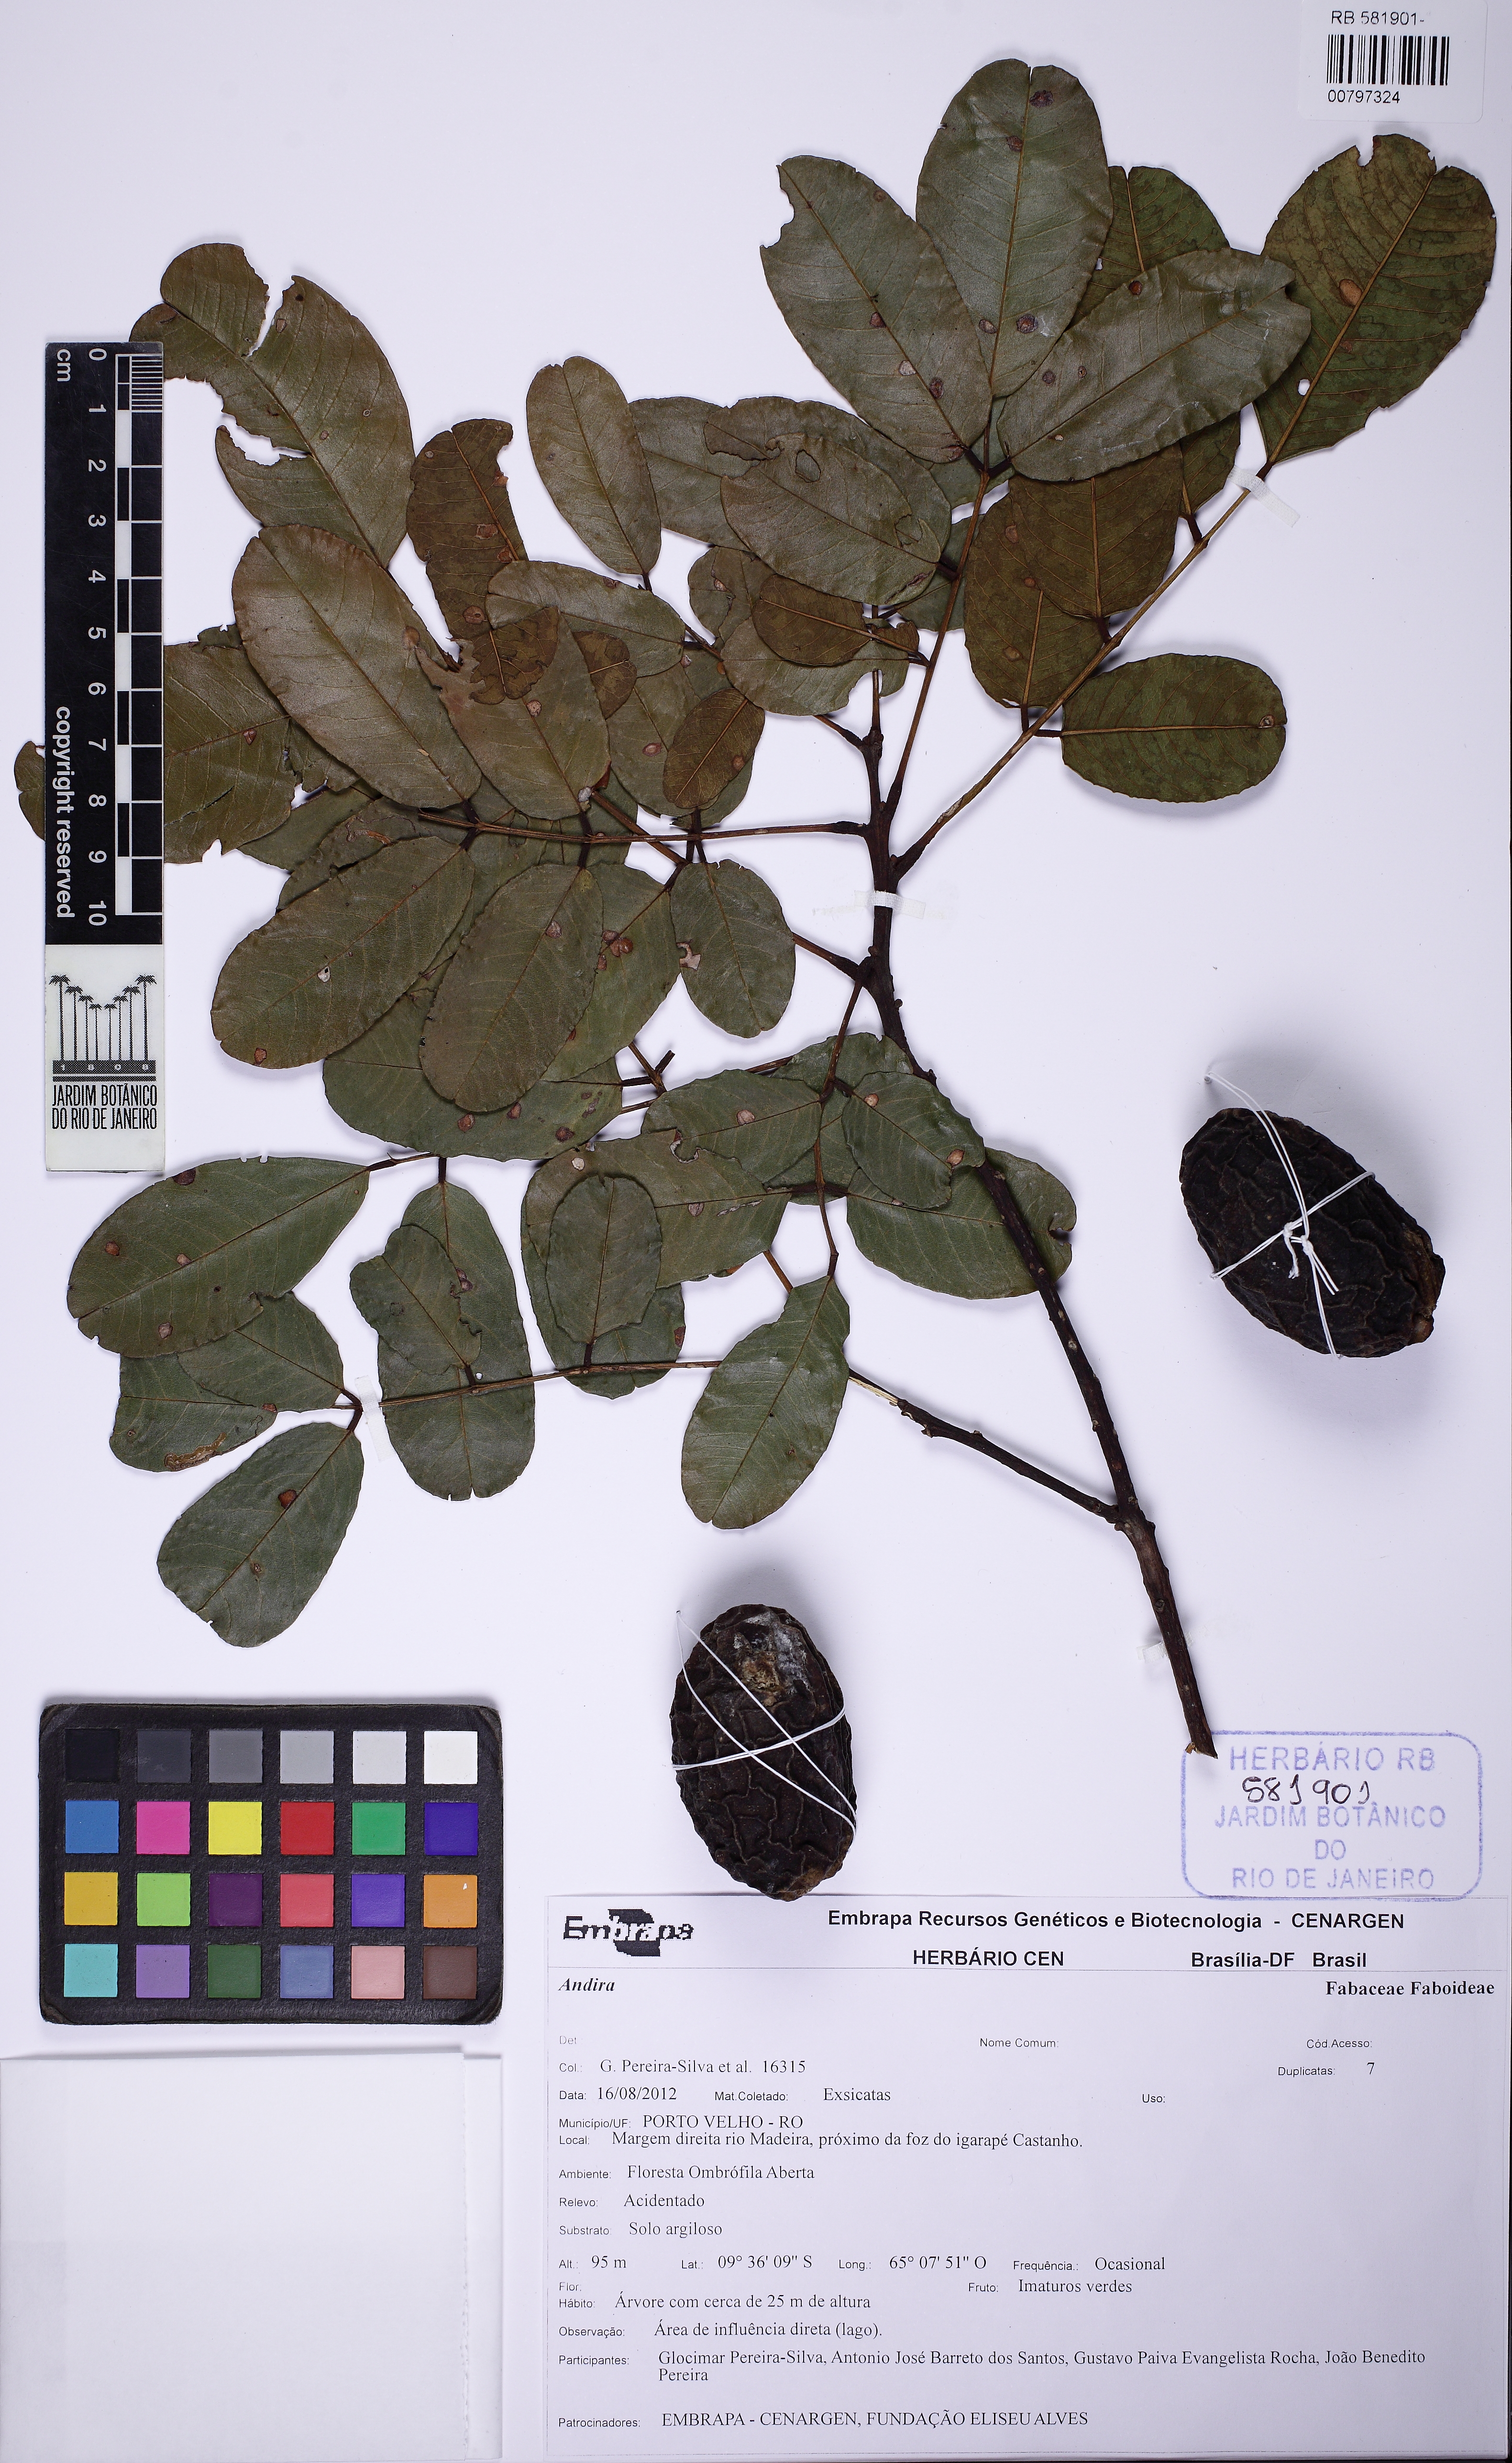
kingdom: Plantae
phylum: Tracheophyta
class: Magnoliopsida
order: Fabales
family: Fabaceae
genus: Andira
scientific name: Andira
